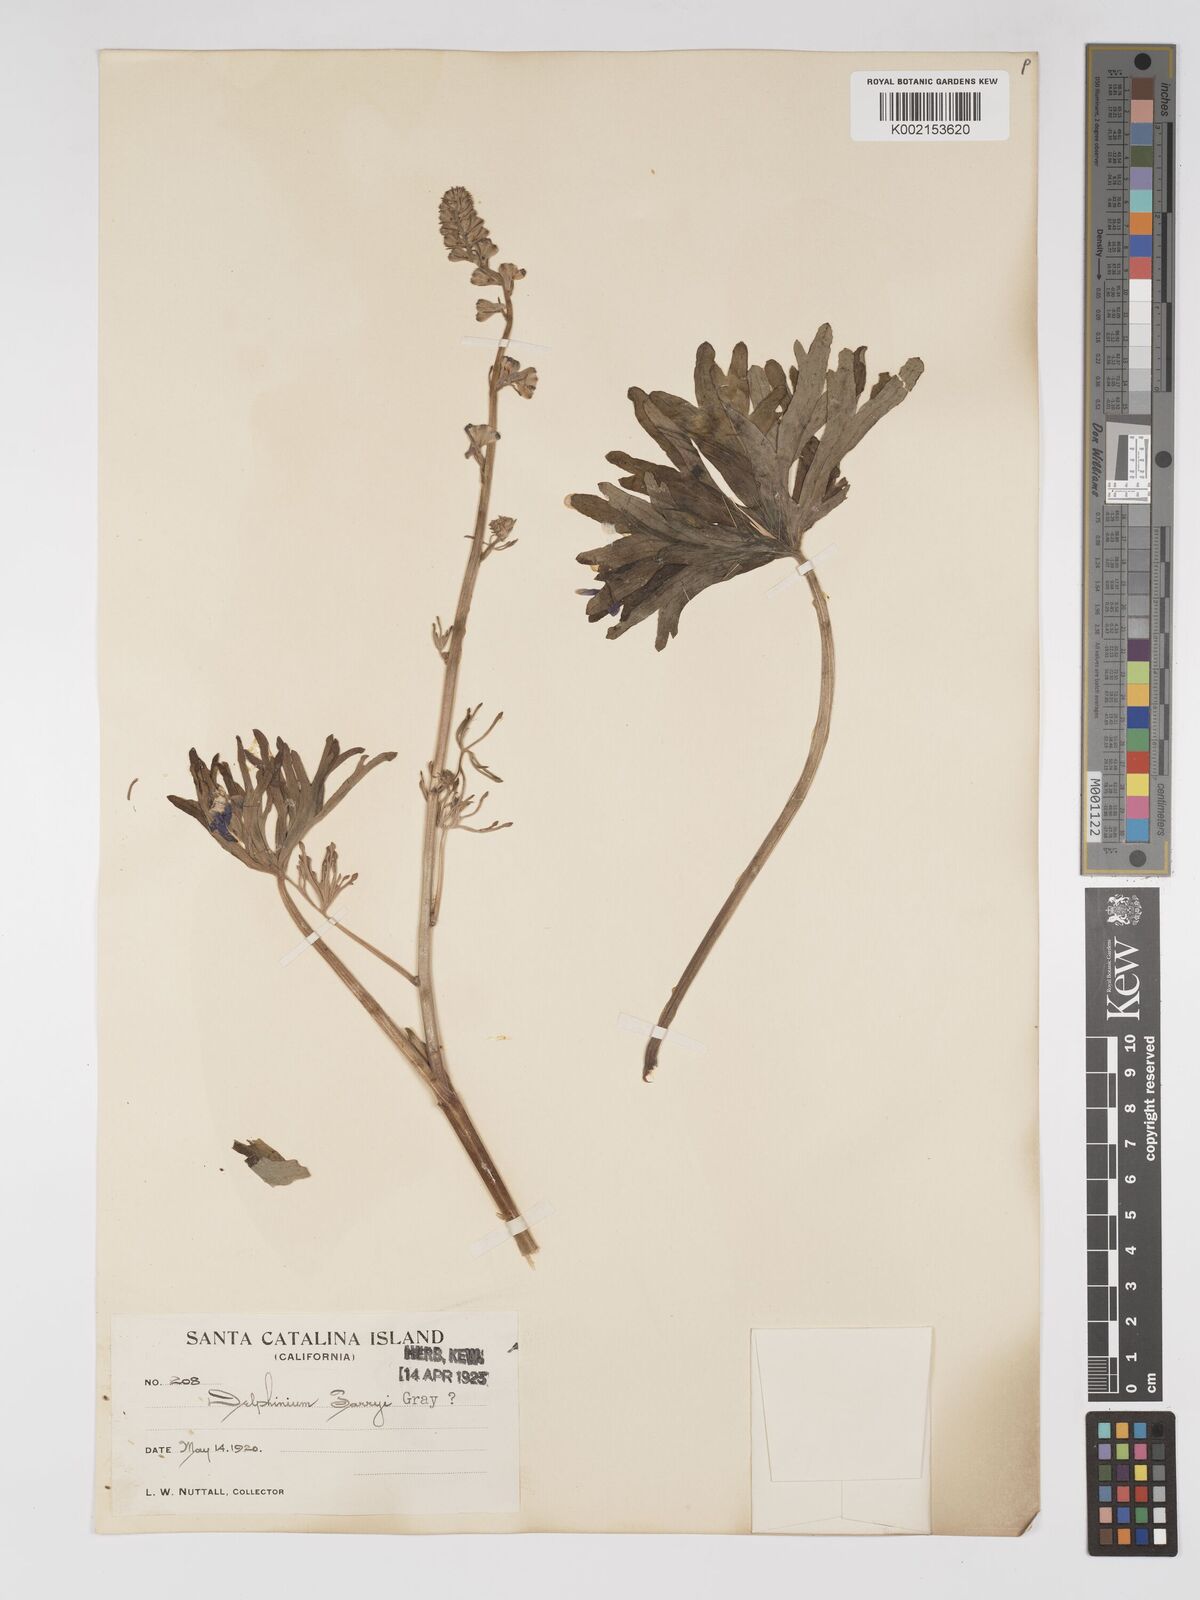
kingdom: Plantae
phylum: Tracheophyta
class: Magnoliopsida
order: Ranunculales
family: Ranunculaceae
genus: Delphinium
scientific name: Delphinium parryi
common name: Parry's larkspur
